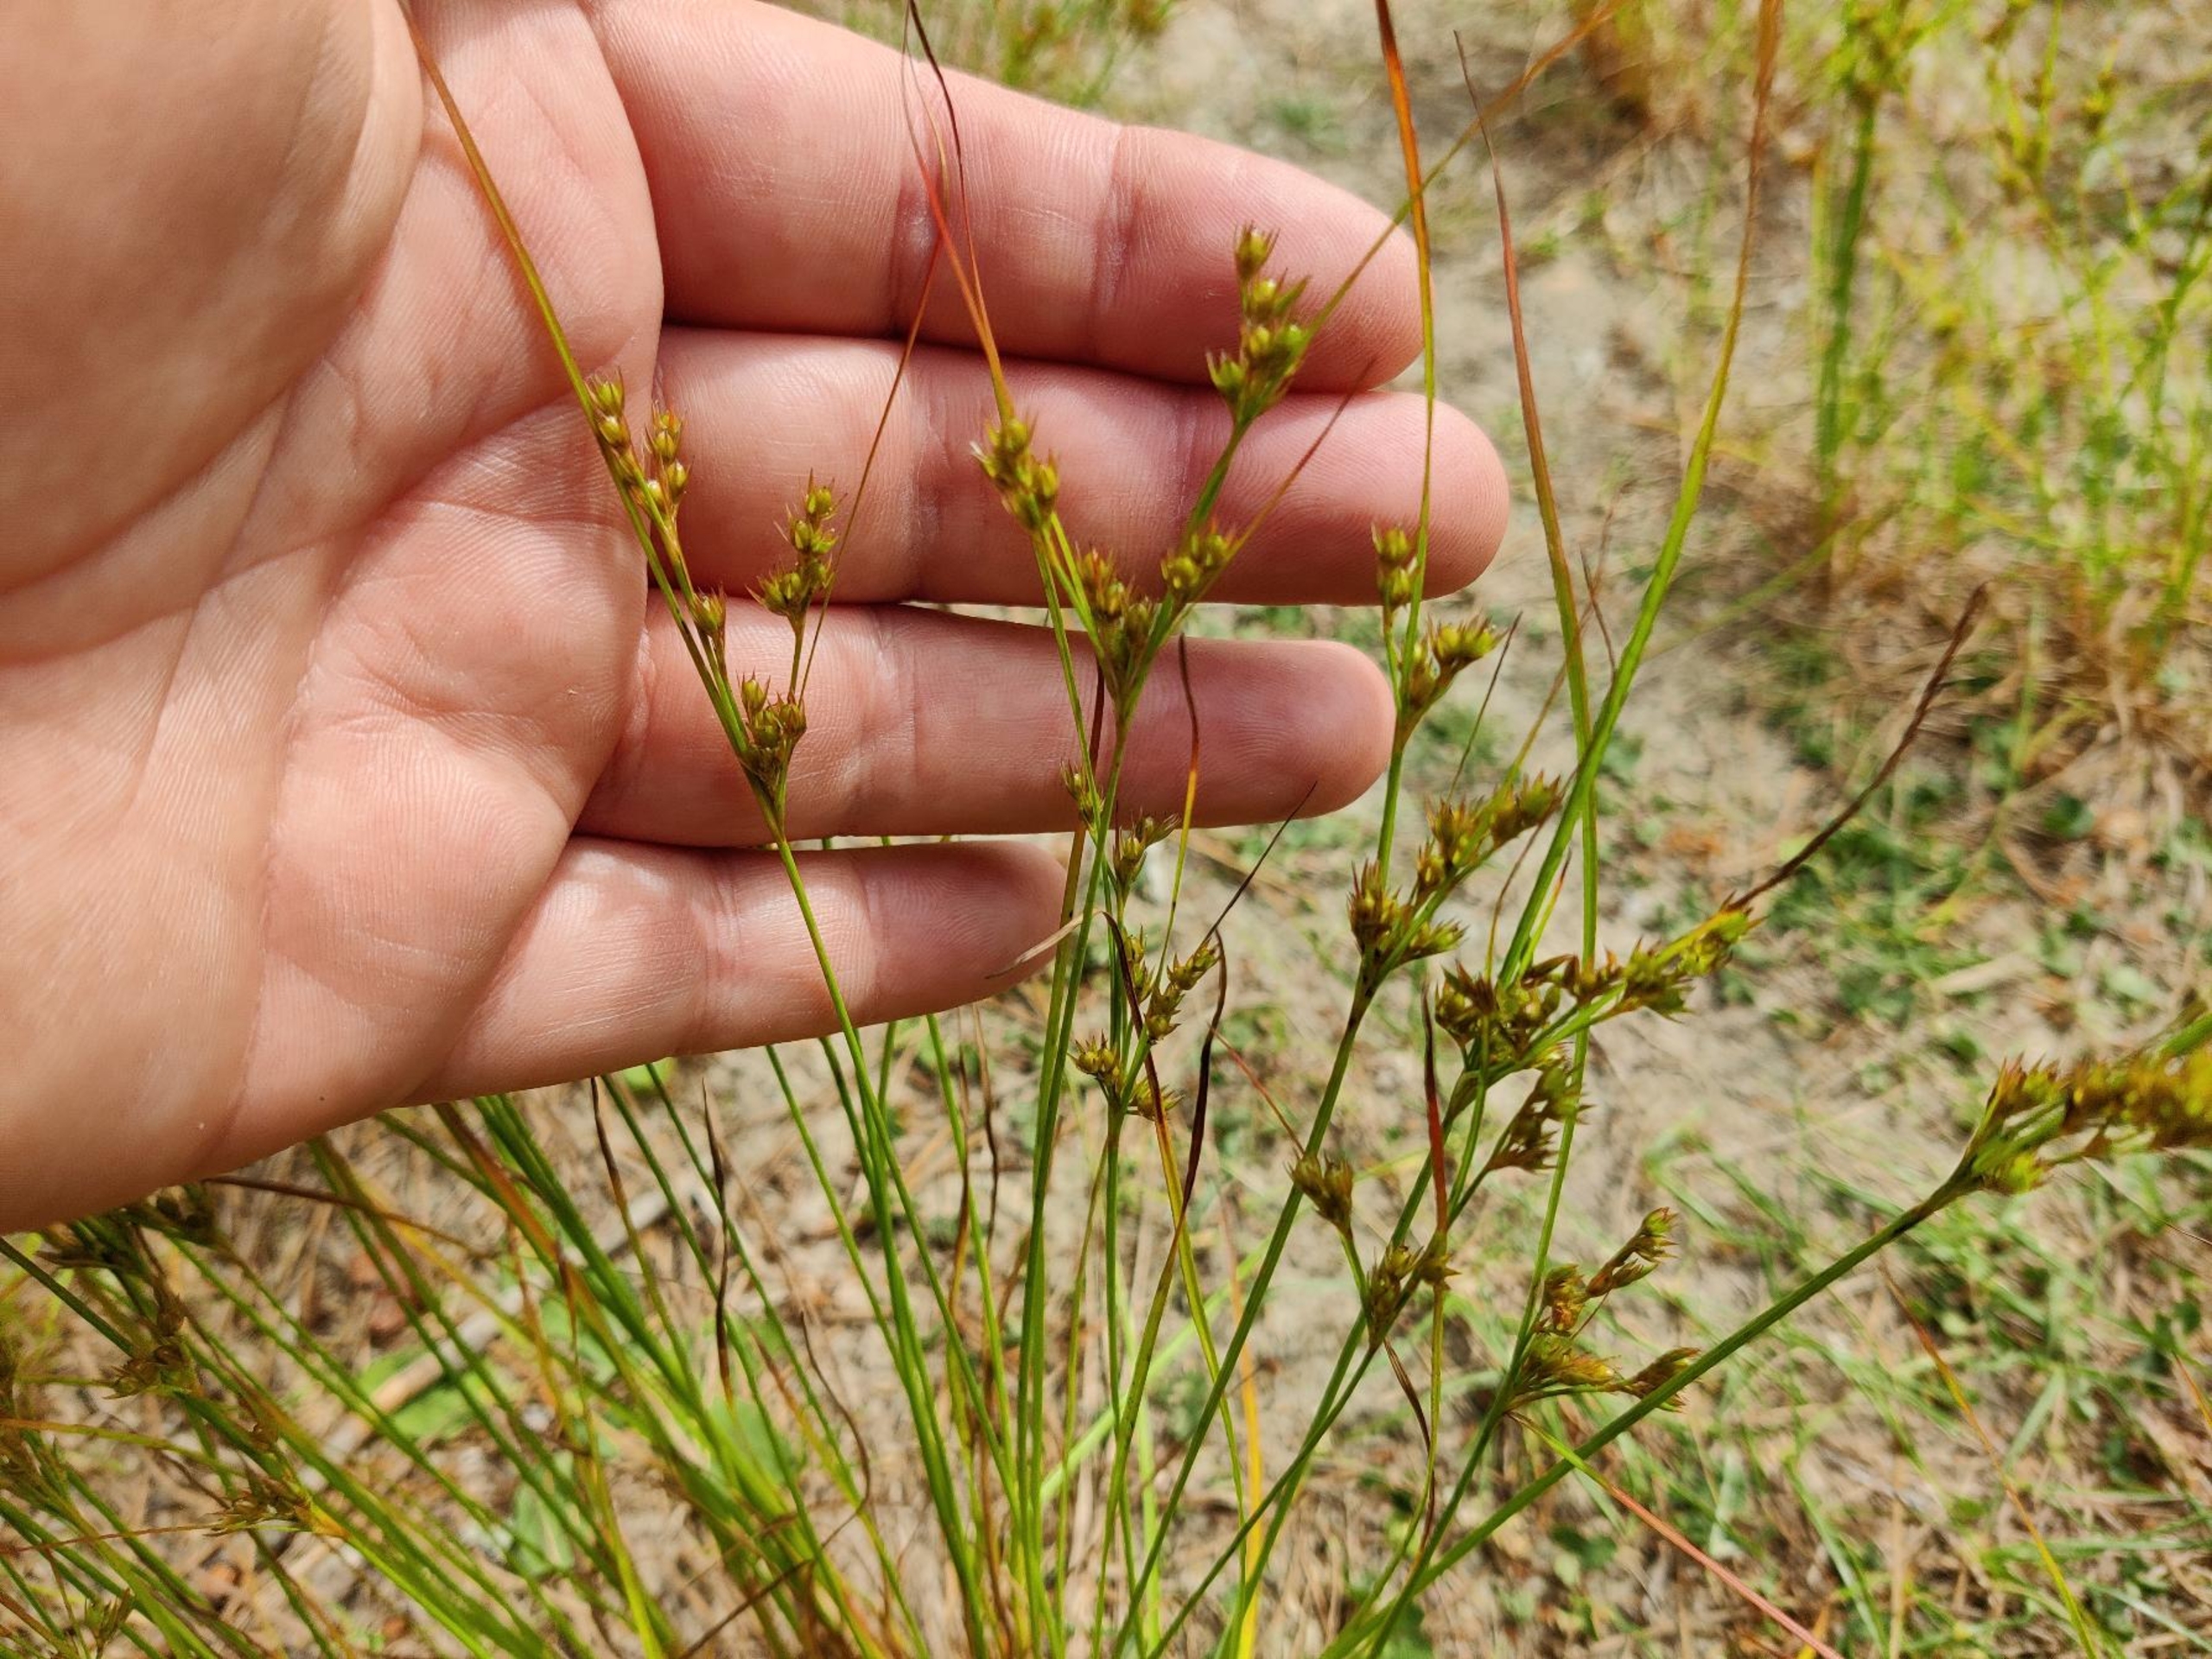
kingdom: Plantae
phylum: Tracheophyta
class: Liliopsida
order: Poales
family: Juncaceae
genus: Juncus
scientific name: Juncus tenuis
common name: Tue-siv
